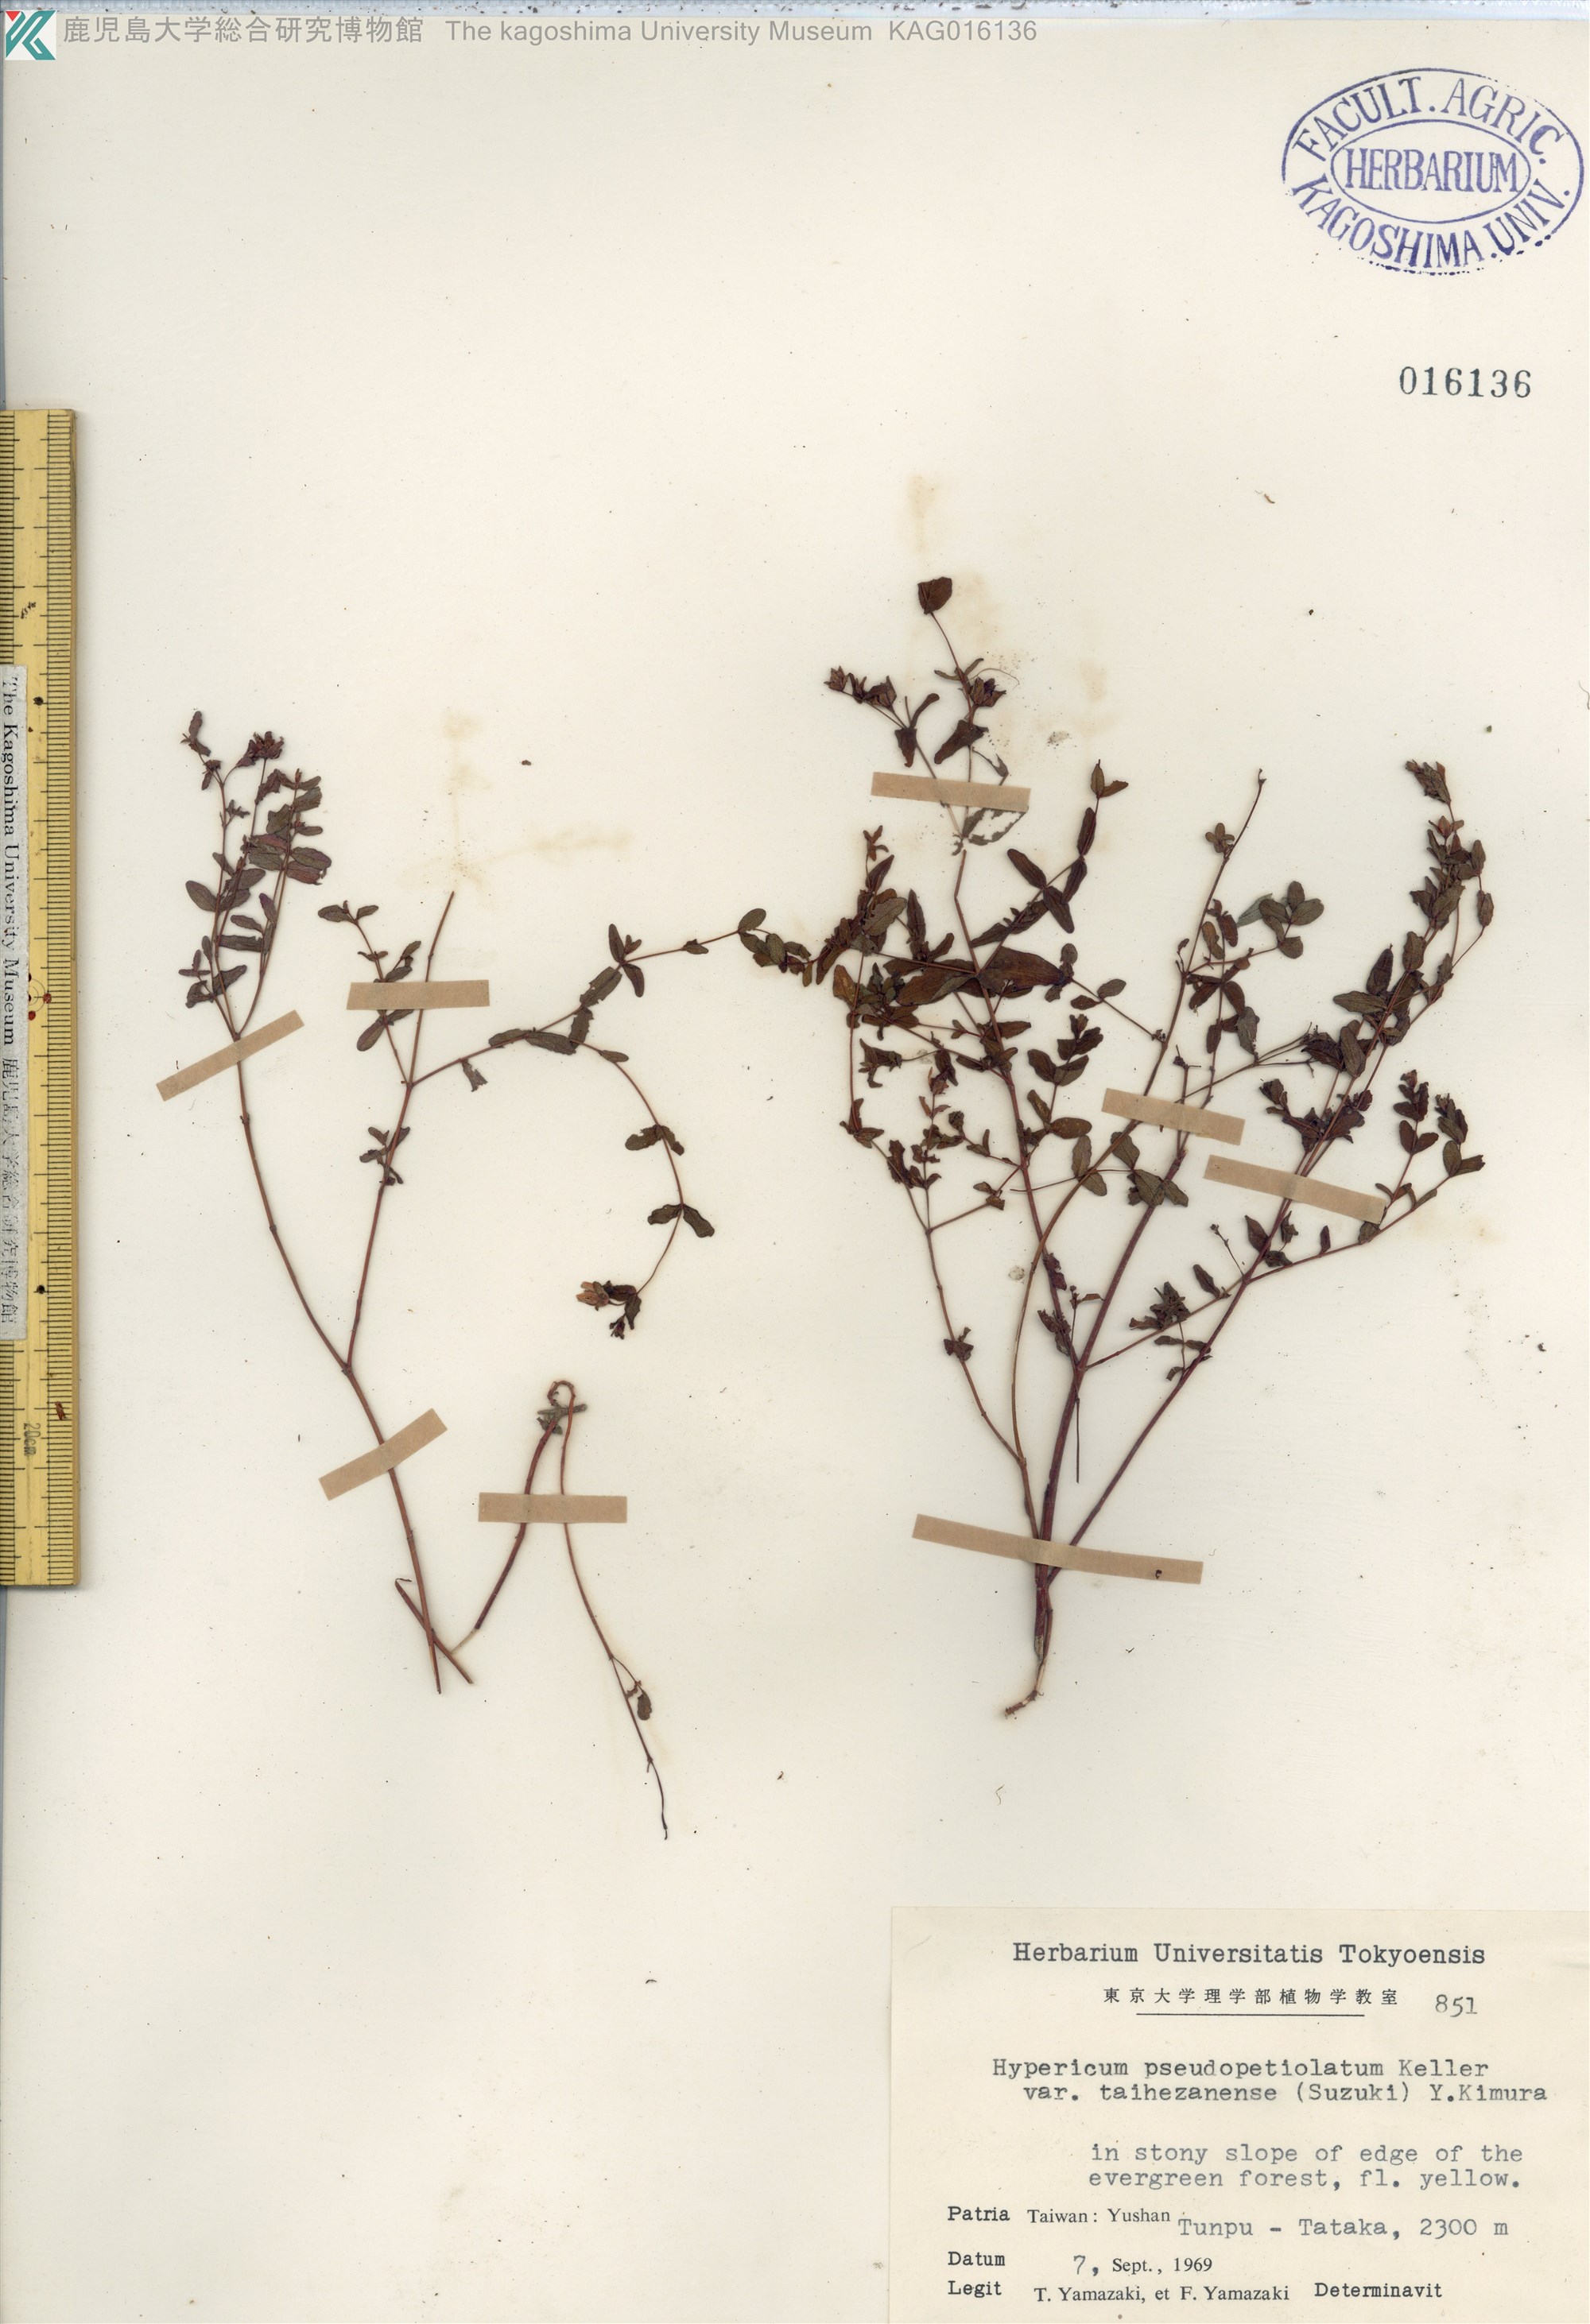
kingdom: Plantae
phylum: Tracheophyta
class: Magnoliopsida
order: Malpighiales
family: Hypericaceae
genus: Hypericum
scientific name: Hypericum pseudopetiolatum
